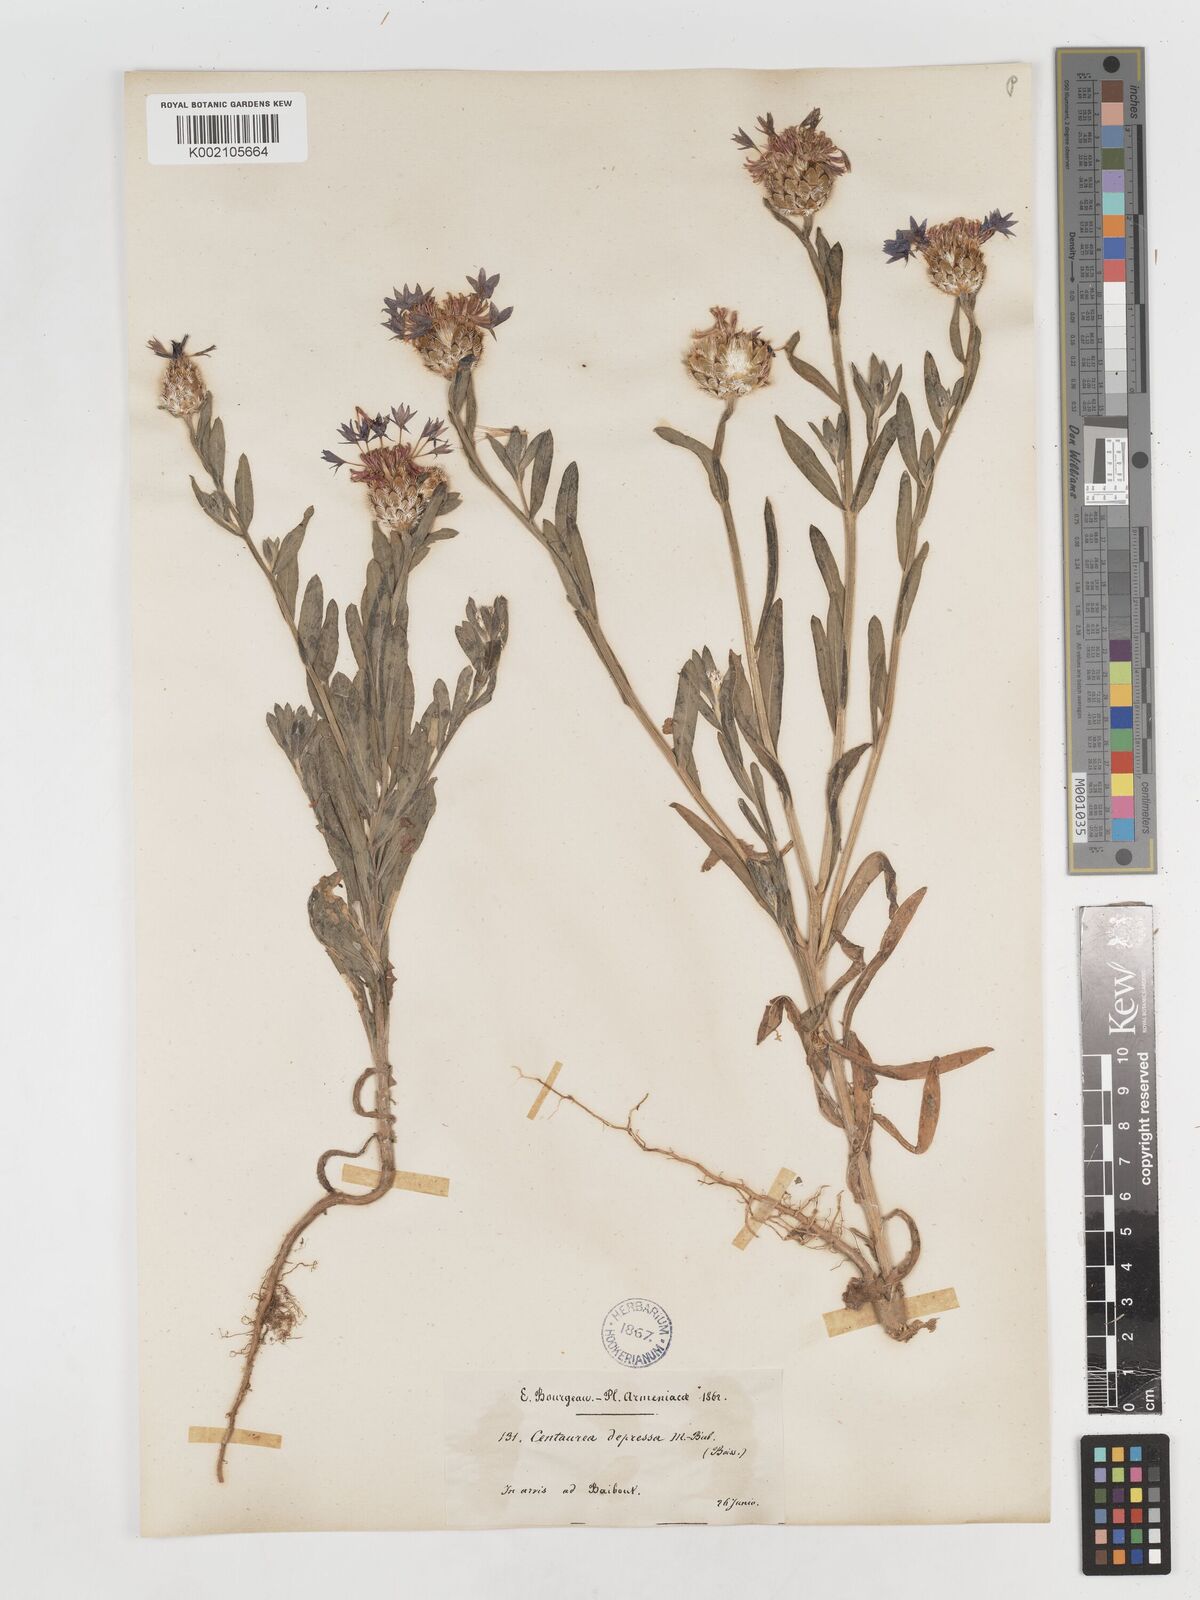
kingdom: Plantae
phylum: Tracheophyta
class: Magnoliopsida
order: Asterales
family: Asteraceae
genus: Centaurea
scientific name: Centaurea depressa
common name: Iranian knapweed
